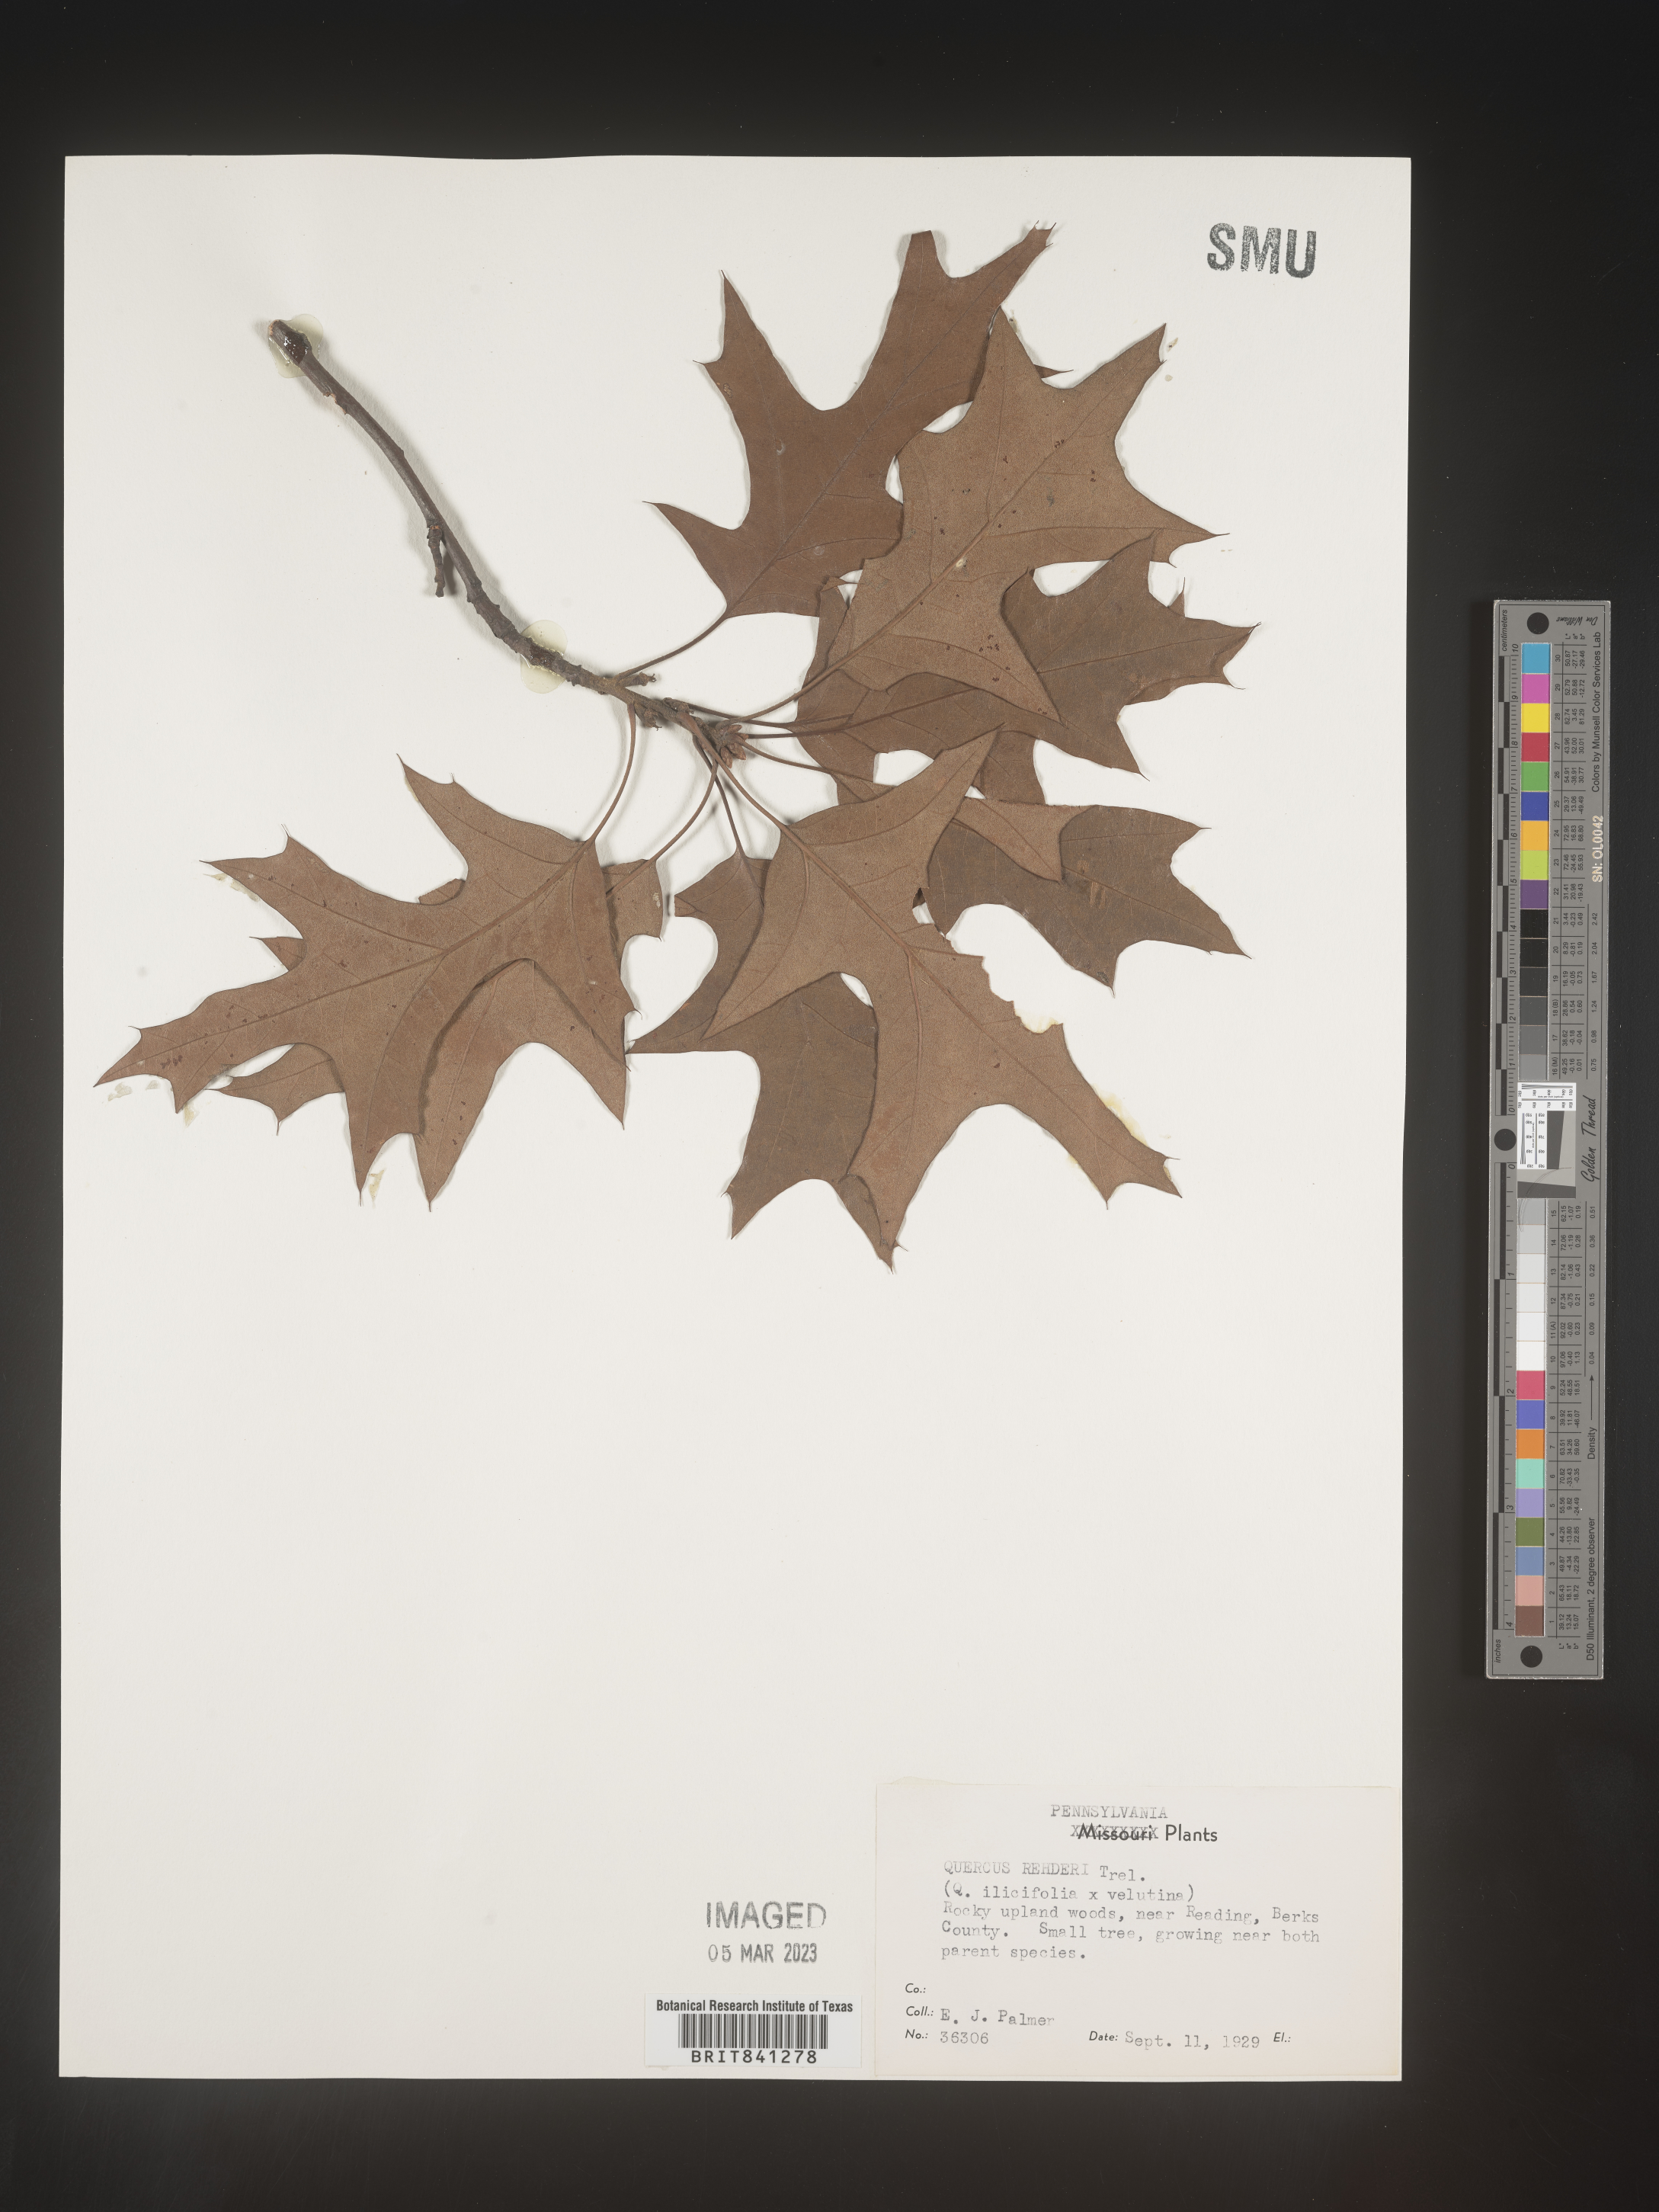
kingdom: Plantae
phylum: Tracheophyta
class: Magnoliopsida
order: Fagales
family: Fagaceae
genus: Quercus
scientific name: Quercus rehderiana
